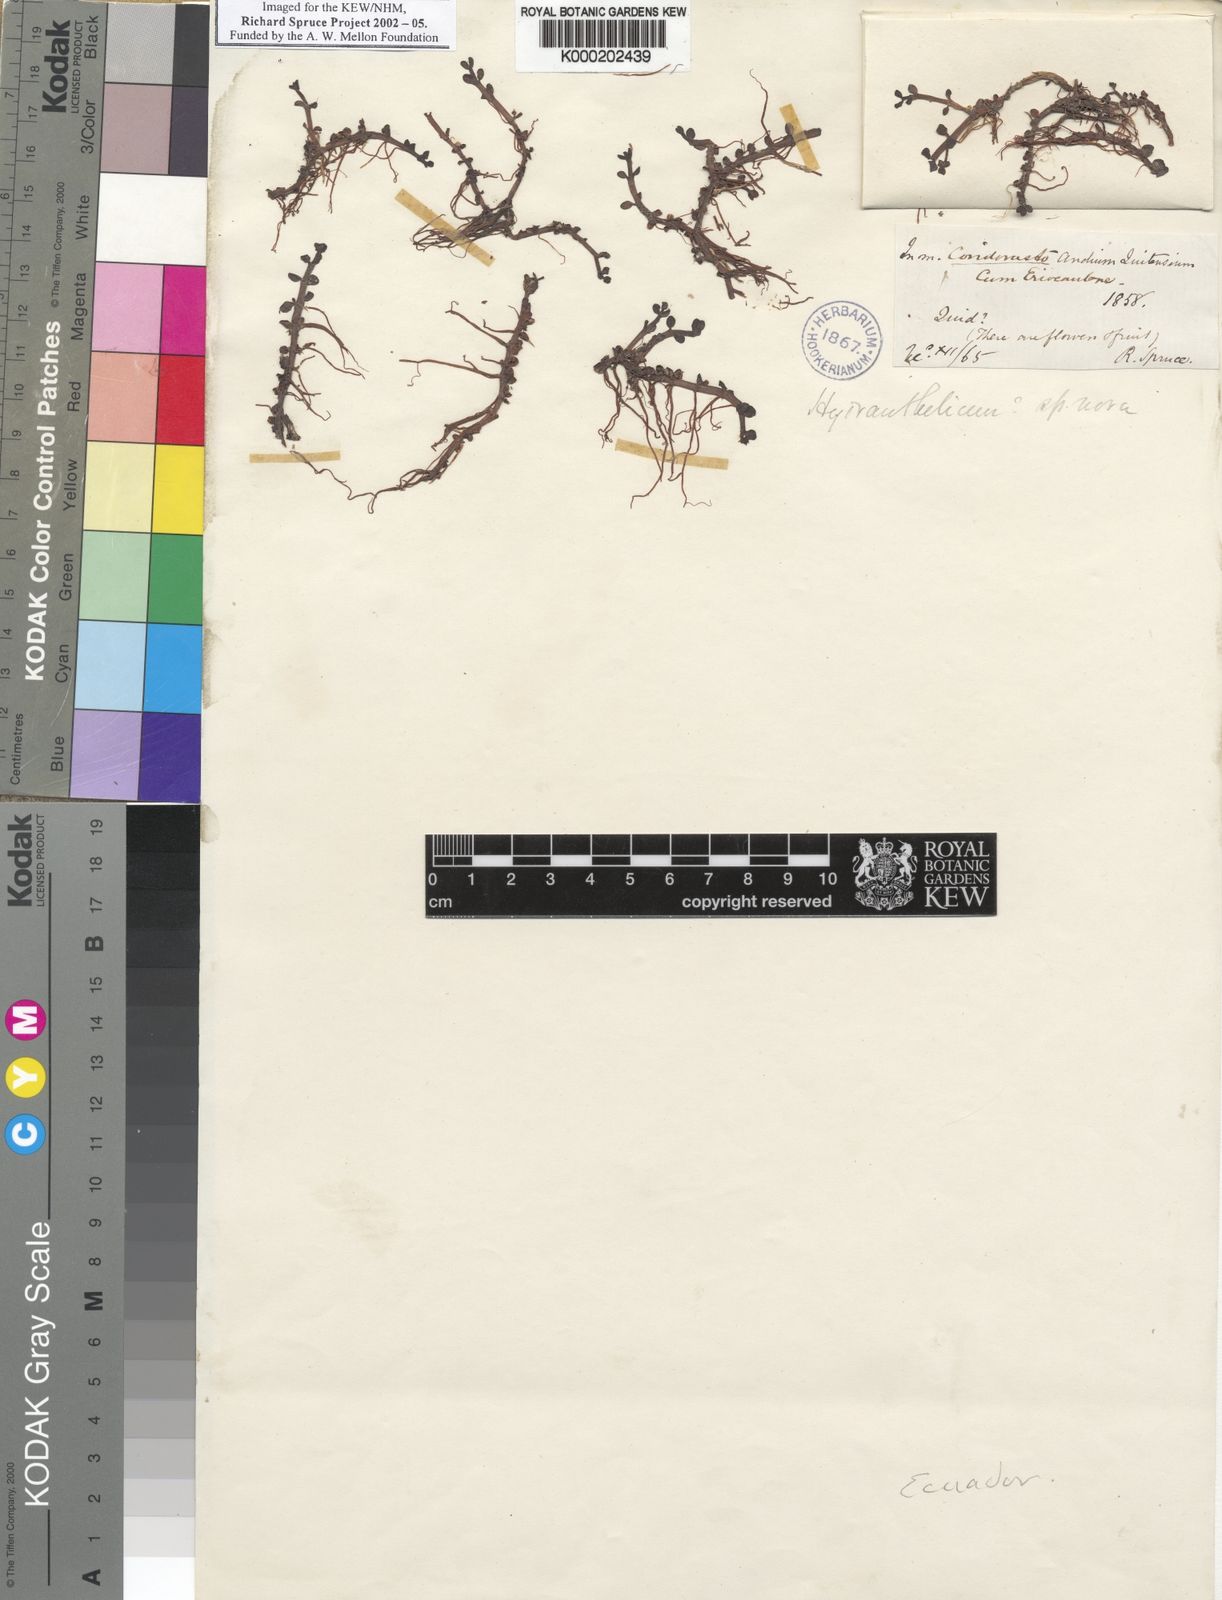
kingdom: Plantae
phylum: Tracheophyta
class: Magnoliopsida
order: Lamiales
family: Plantaginaceae
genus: Bacopa
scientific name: Bacopa
